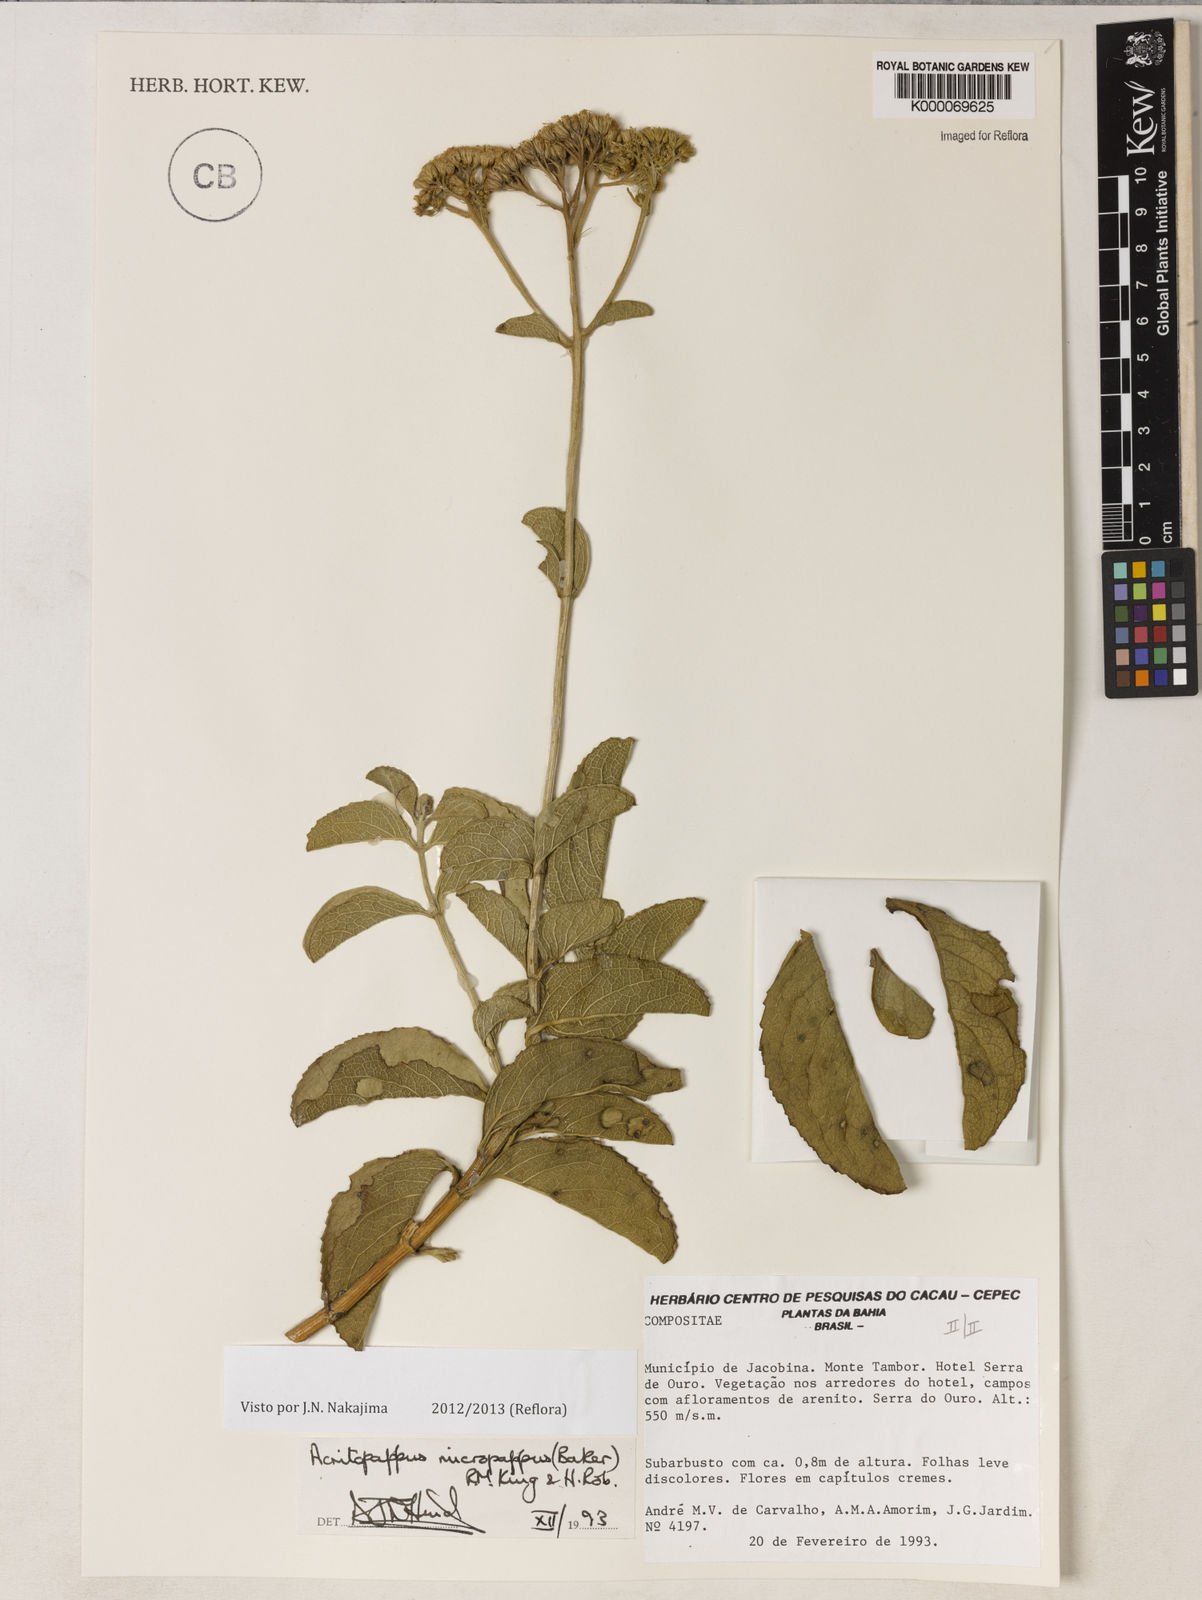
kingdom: Plantae
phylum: Tracheophyta
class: Magnoliopsida
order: Asterales
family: Asteraceae
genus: Acritopappus
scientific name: Acritopappus micropappus
